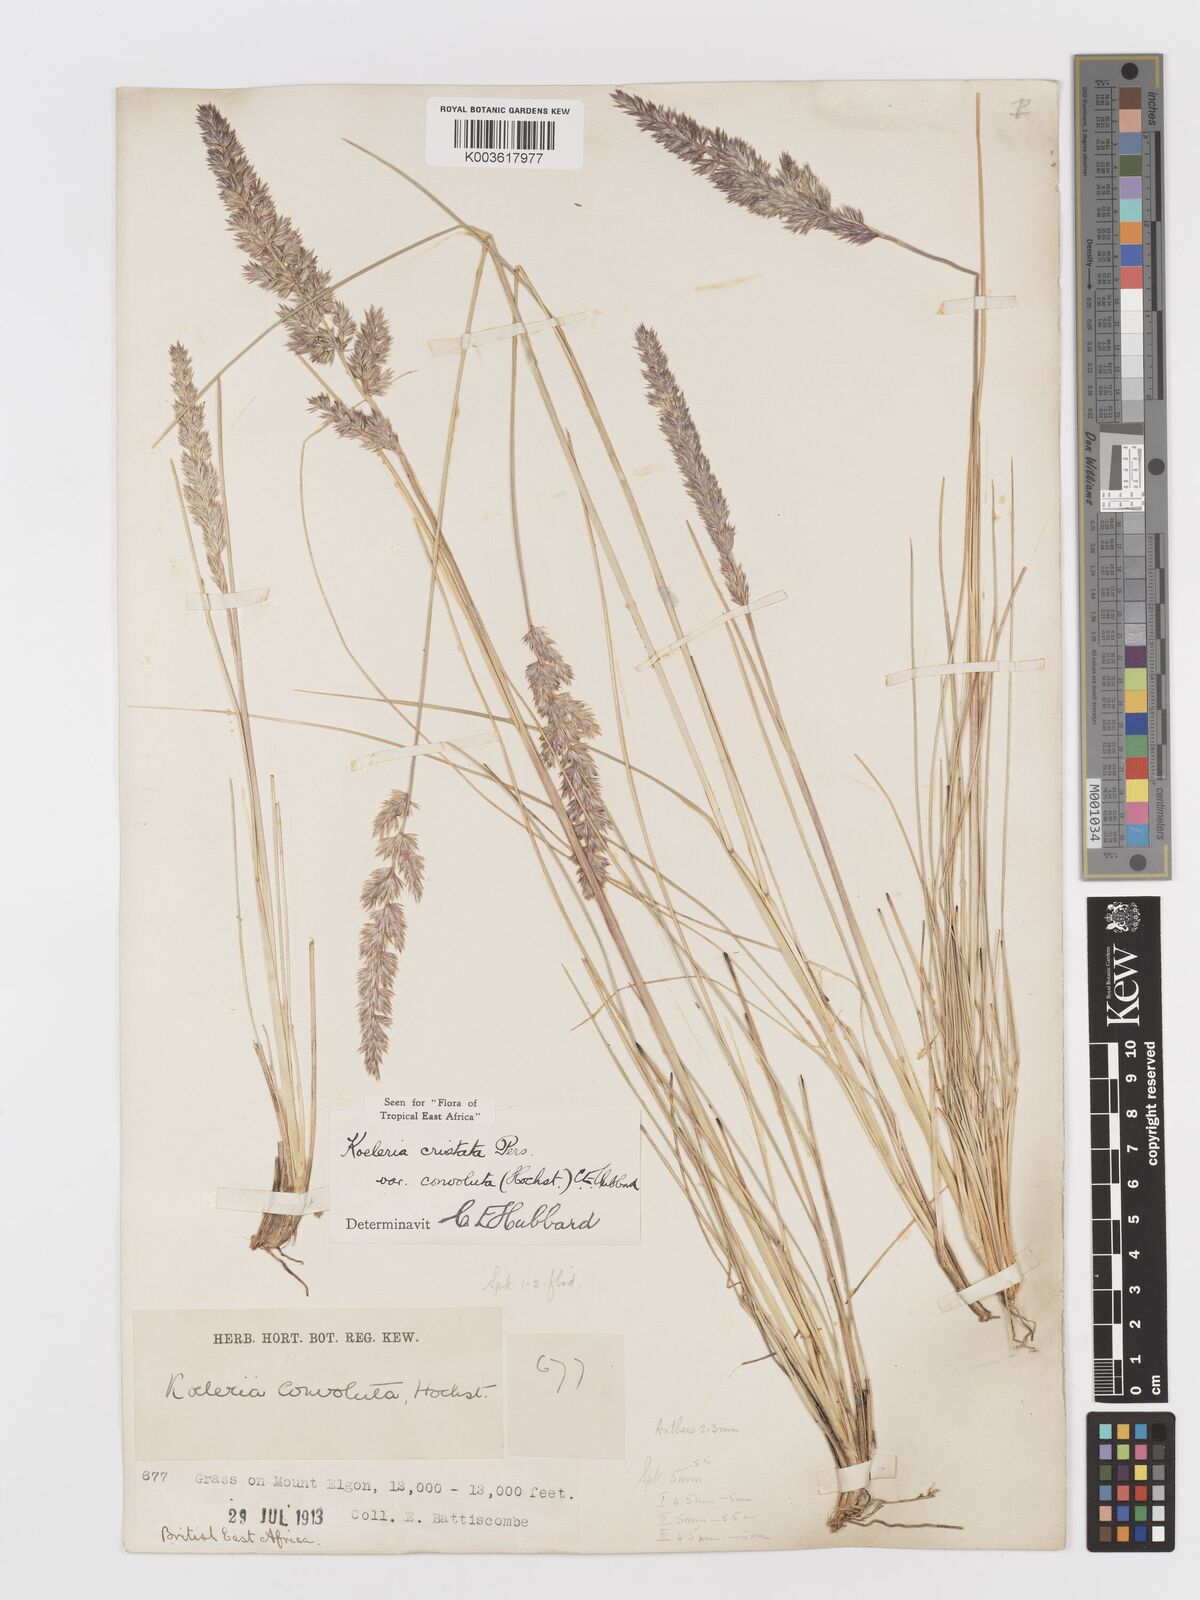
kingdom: Plantae
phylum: Tracheophyta
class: Liliopsida
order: Poales
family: Poaceae
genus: Koeleria
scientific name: Koeleria capensis
